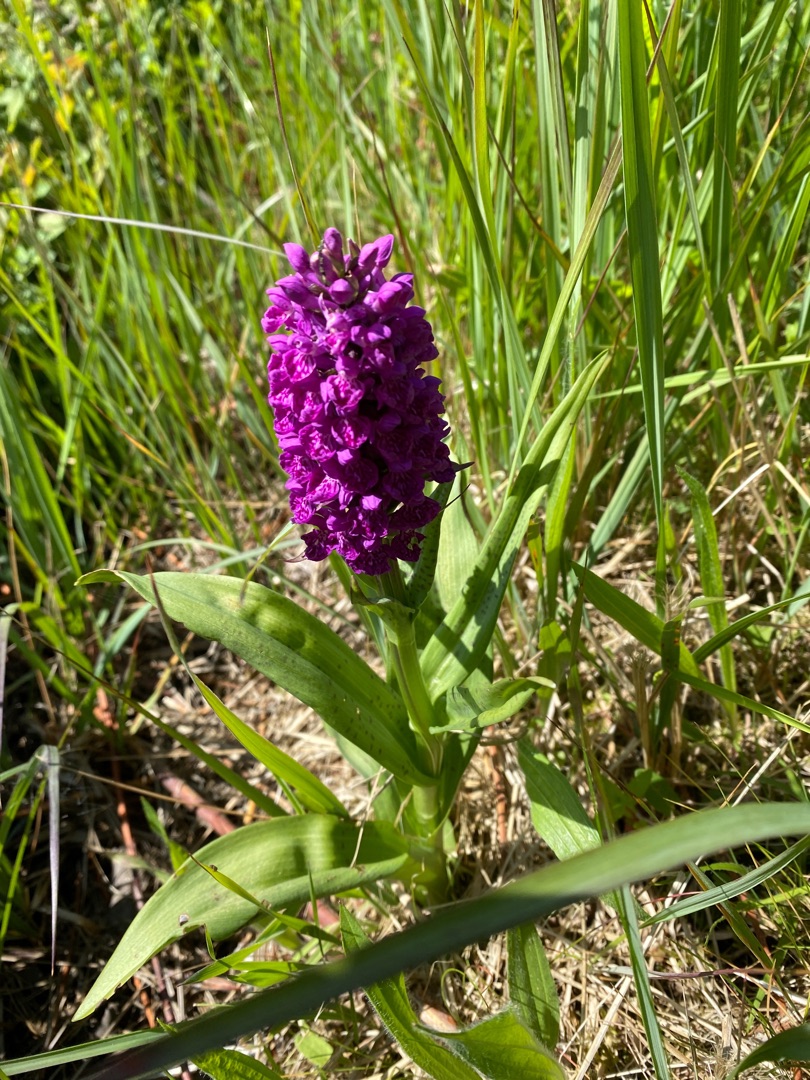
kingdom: Plantae
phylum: Tracheophyta
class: Liliopsida
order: Asparagales
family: Orchidaceae
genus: Dactylorhiza
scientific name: Dactylorhiza majalis
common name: Vendsyssel-gøgeurt
